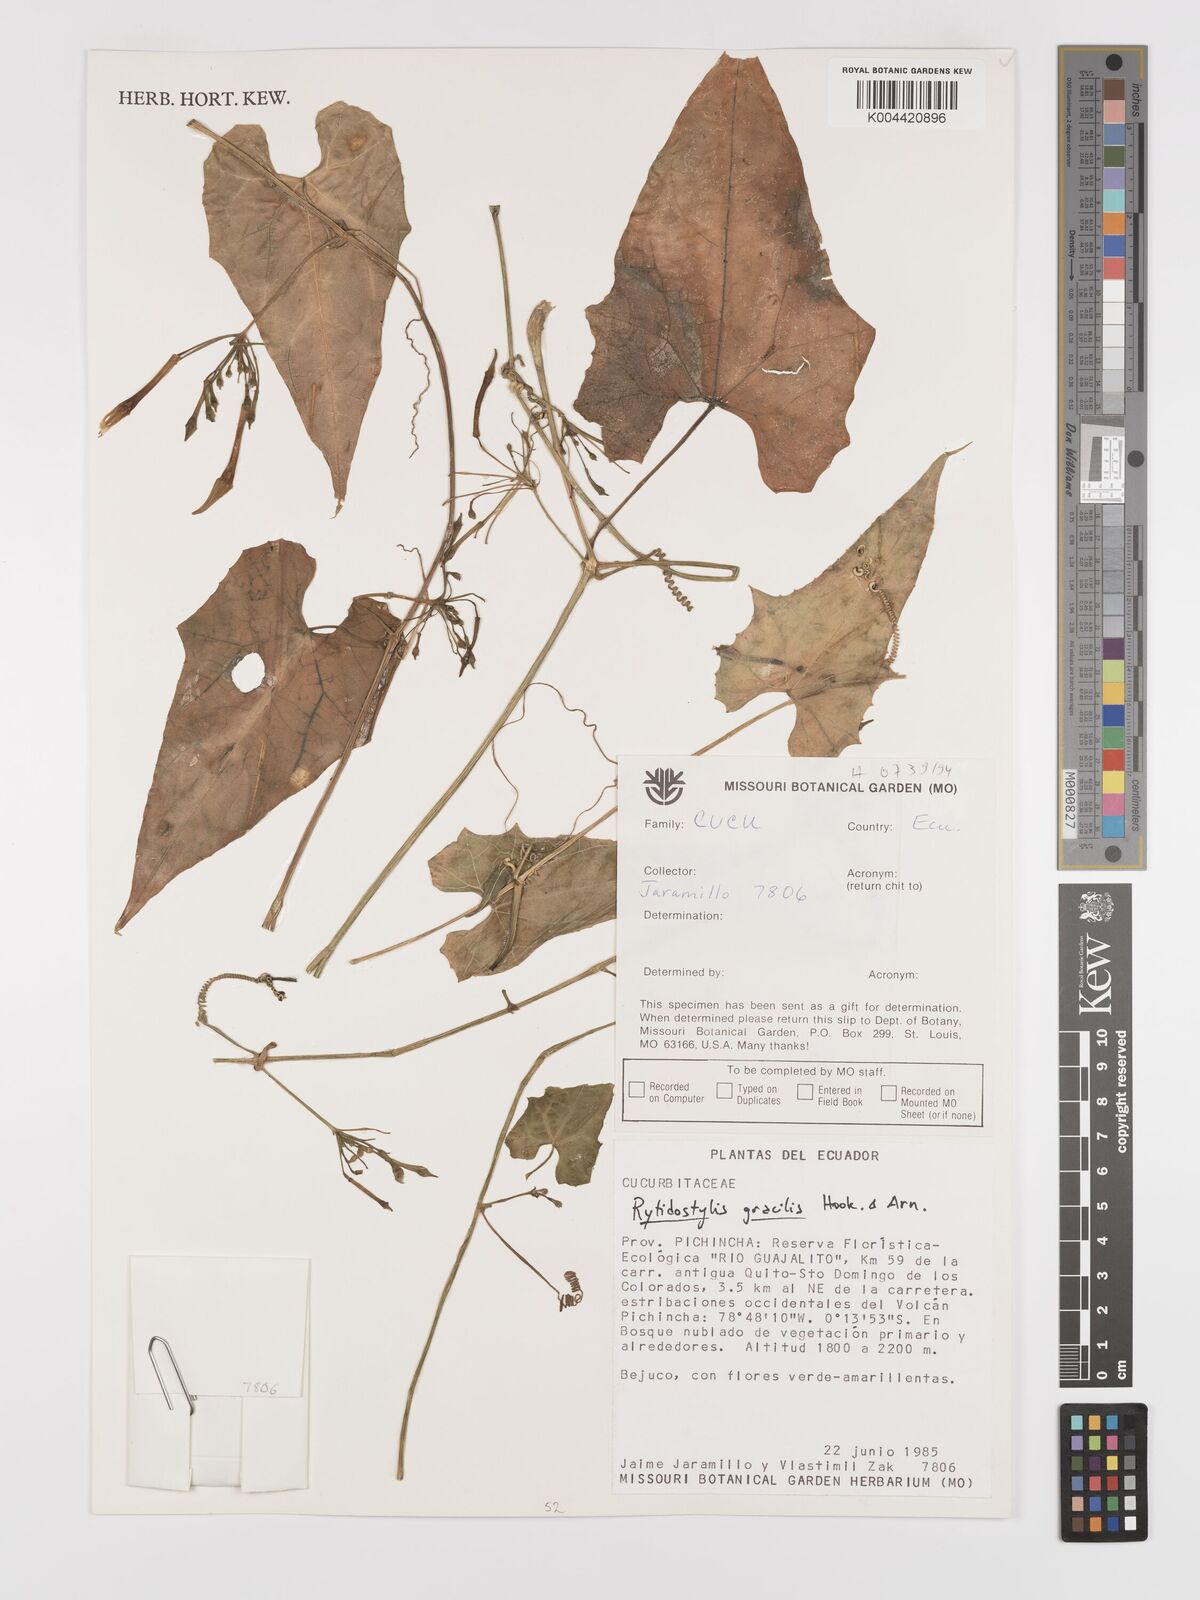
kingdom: Plantae
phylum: Tracheophyta
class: Magnoliopsida
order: Cucurbitales
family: Cucurbitaceae
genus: Cyclanthera
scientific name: Cyclanthera filiformis
